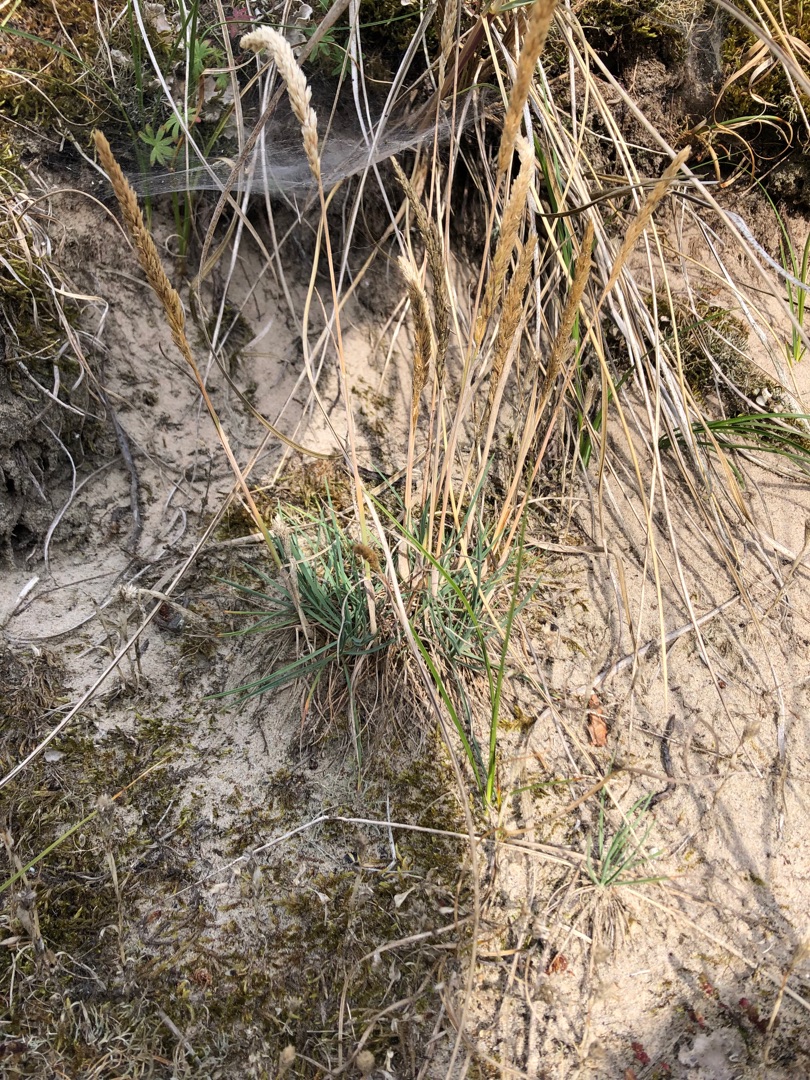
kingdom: Plantae
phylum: Tracheophyta
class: Liliopsida
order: Poales
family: Poaceae
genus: Koeleria
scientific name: Koeleria glauca
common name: Klit-kambunke
